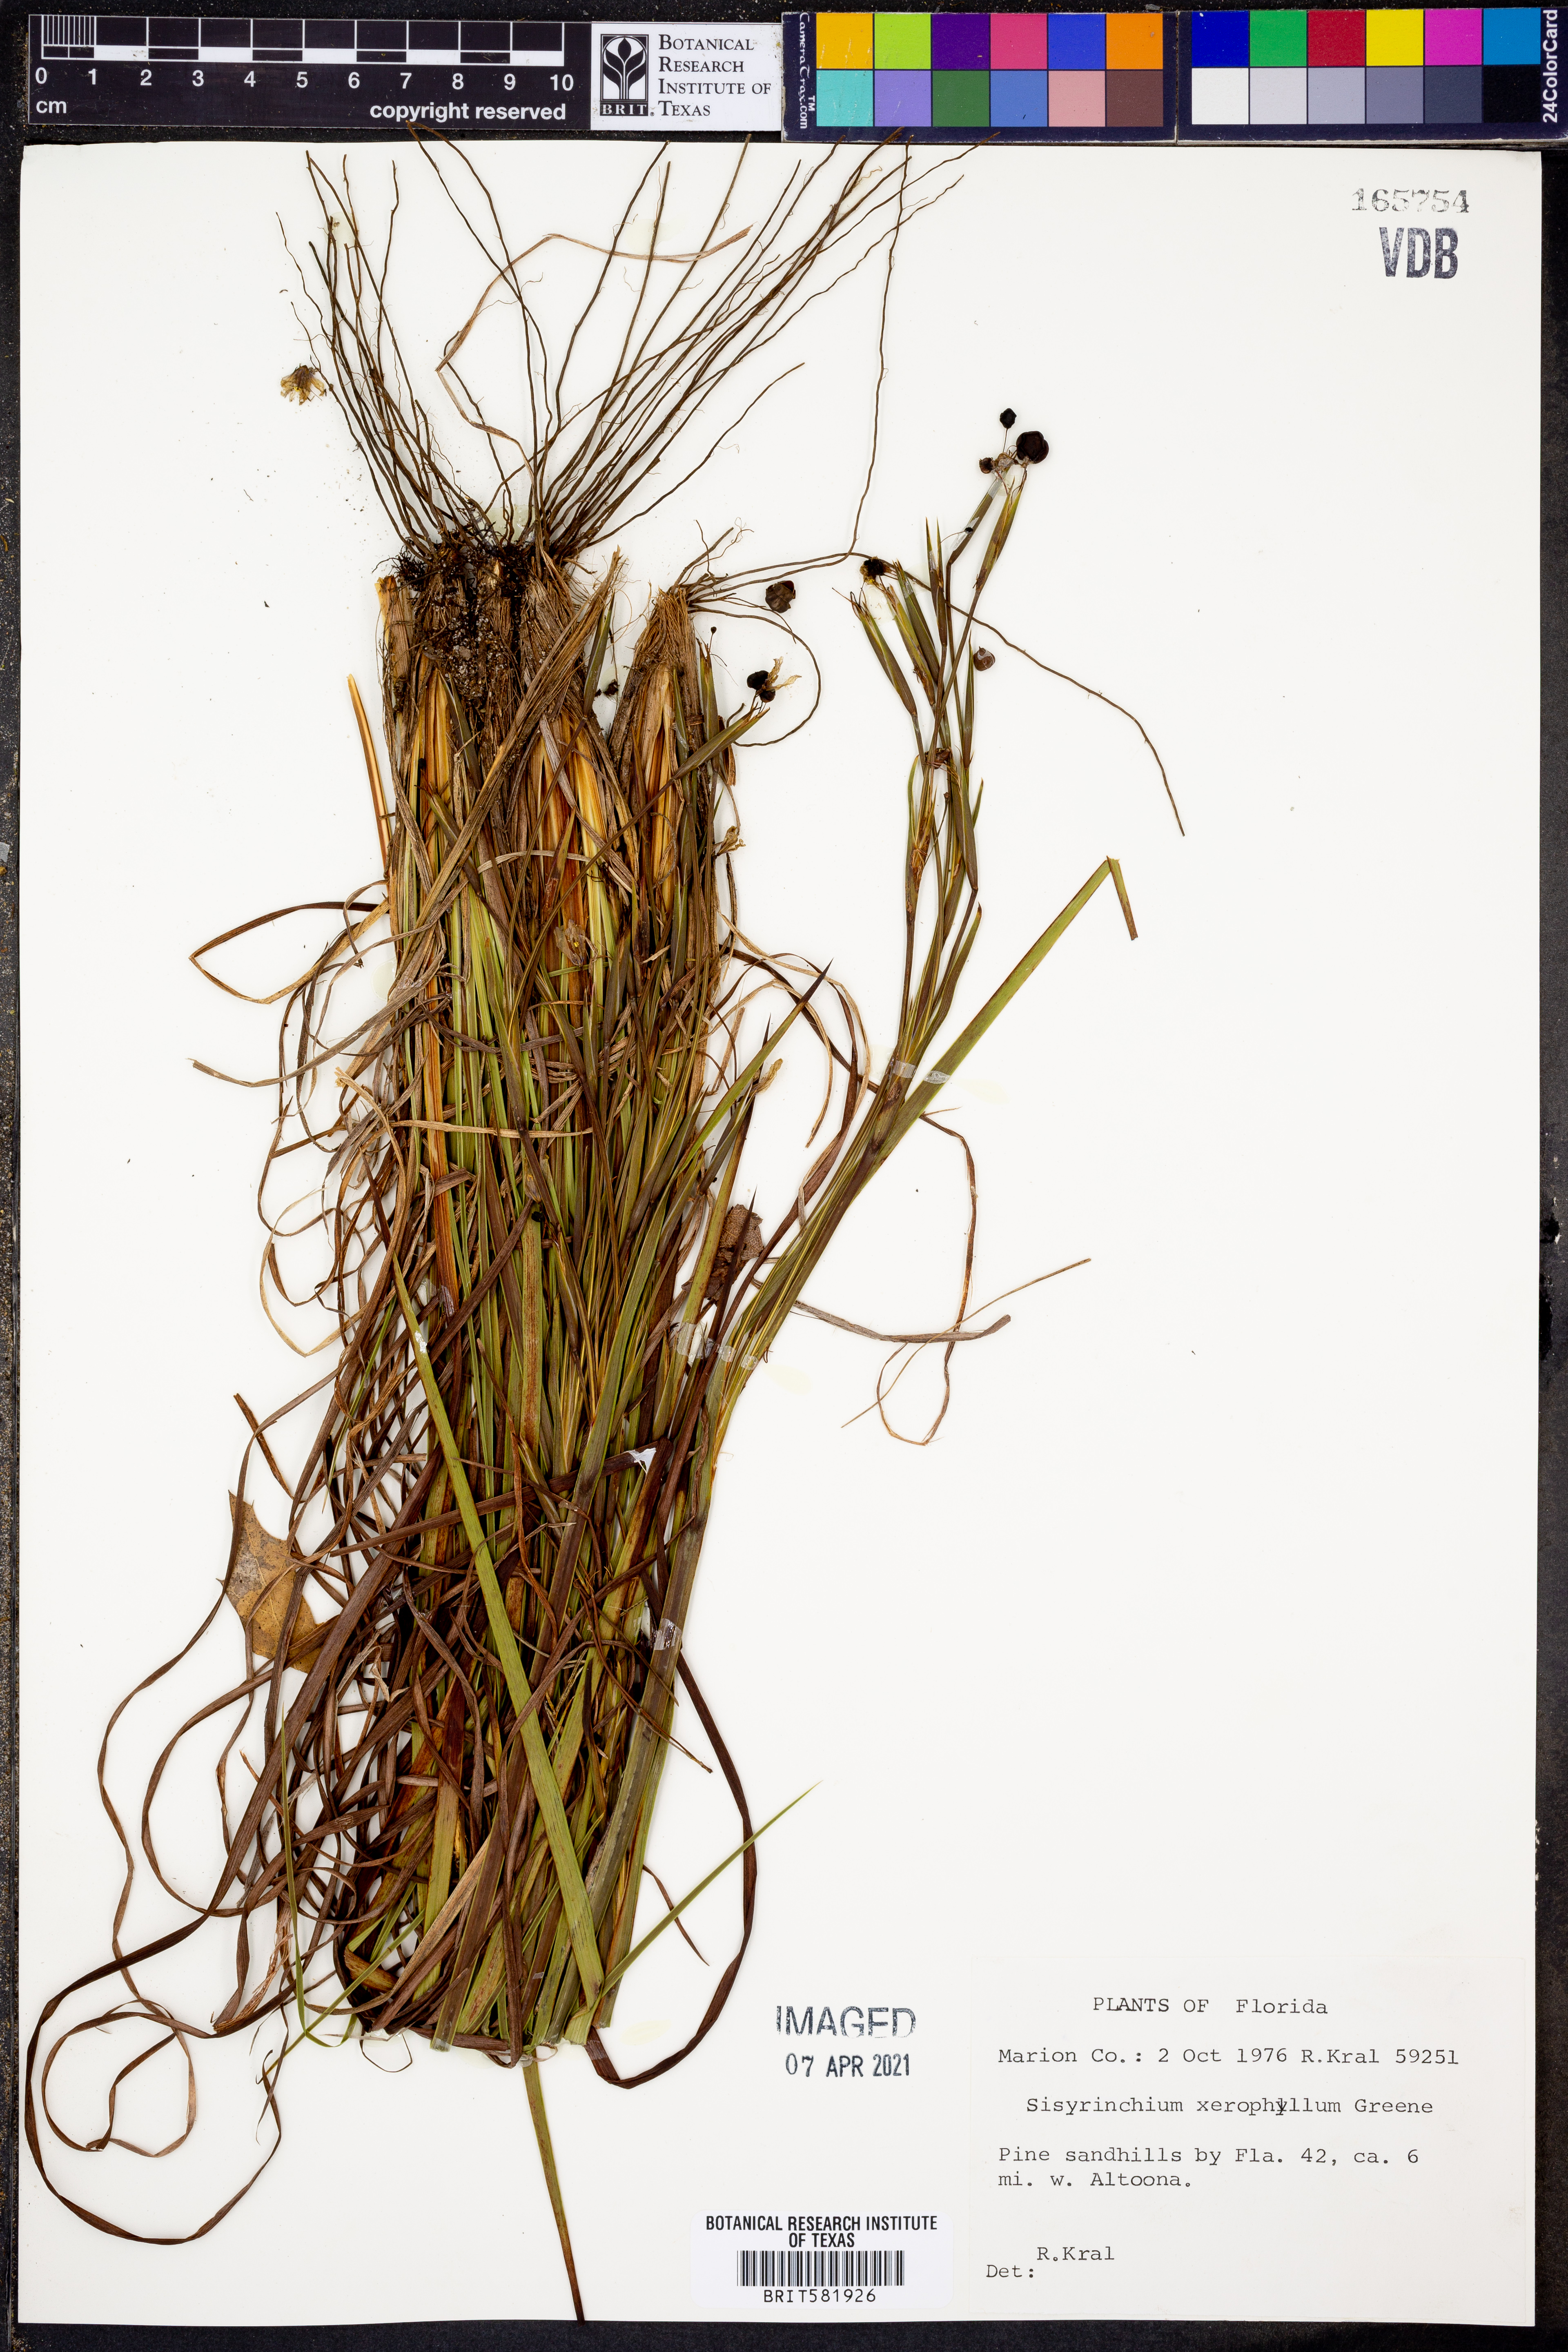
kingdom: Plantae
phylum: Tracheophyta
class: Liliopsida
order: Asparagales
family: Iridaceae
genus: Sisyrinchium
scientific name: Sisyrinchium xerophyllum
